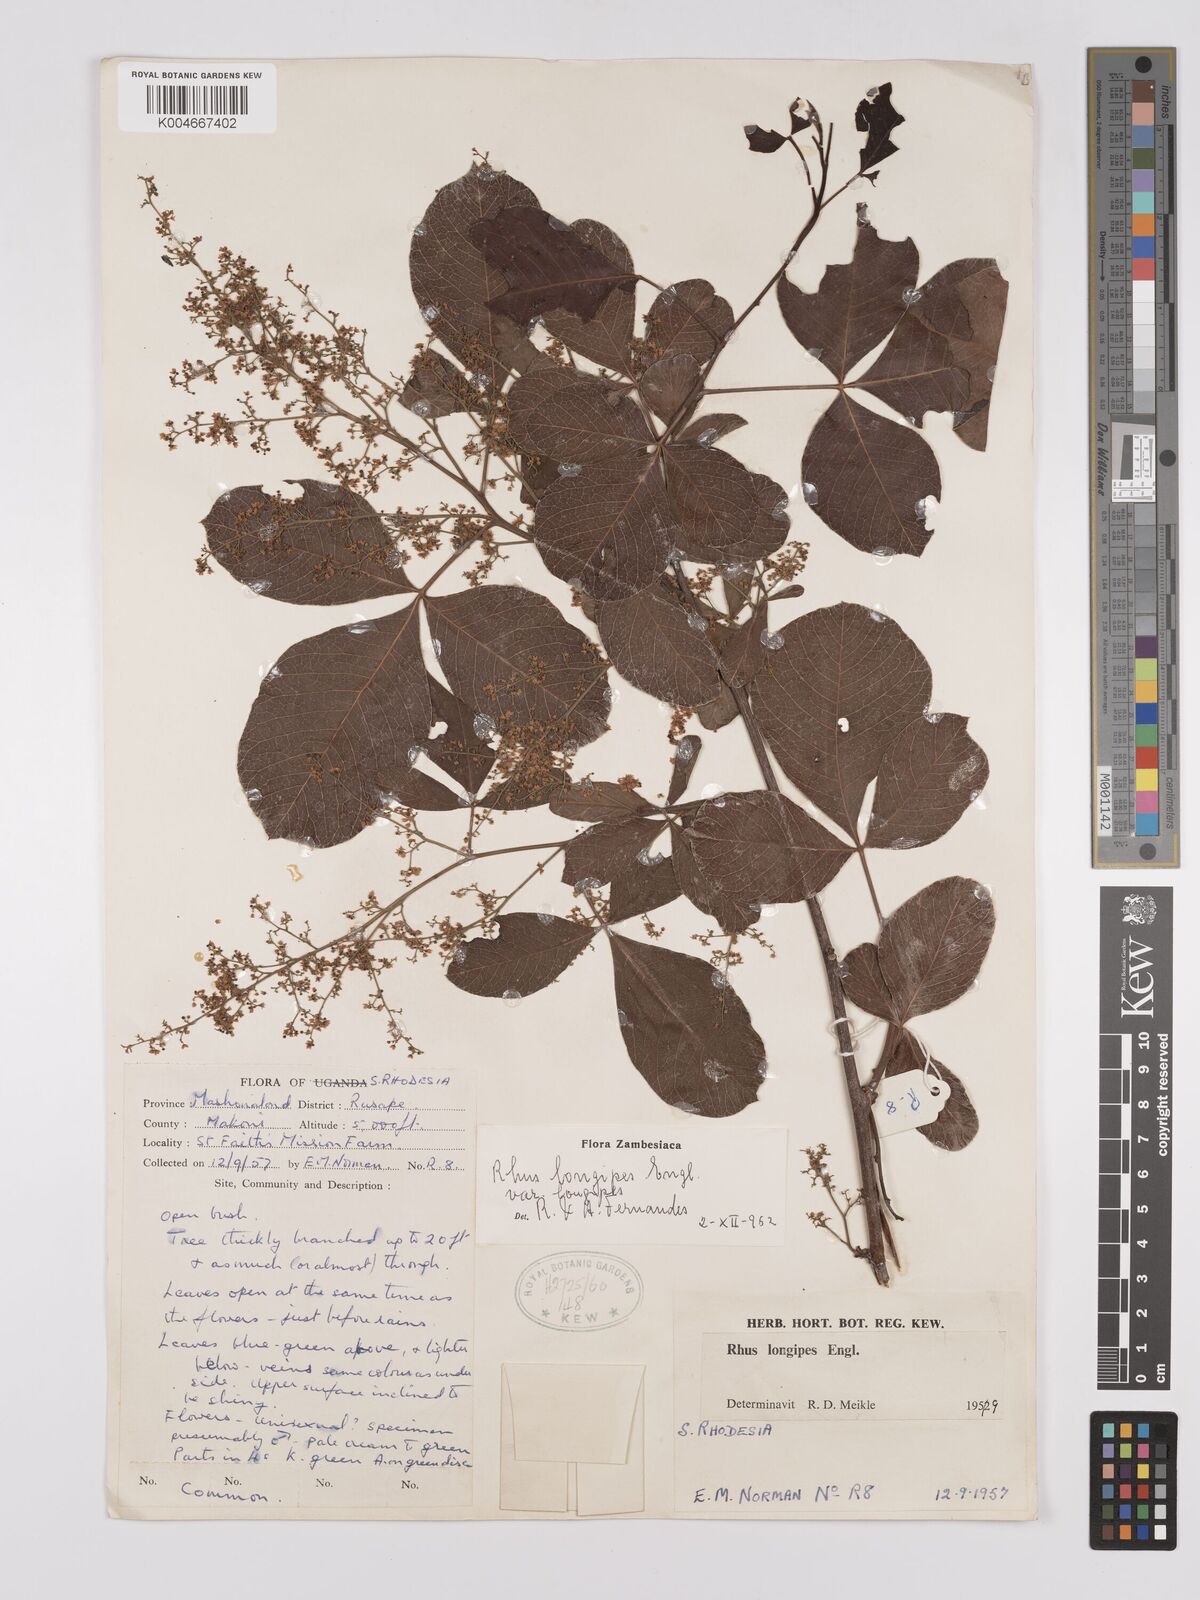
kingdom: Plantae
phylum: Tracheophyta
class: Magnoliopsida
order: Sapindales
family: Anacardiaceae
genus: Searsia
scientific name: Searsia longipes
